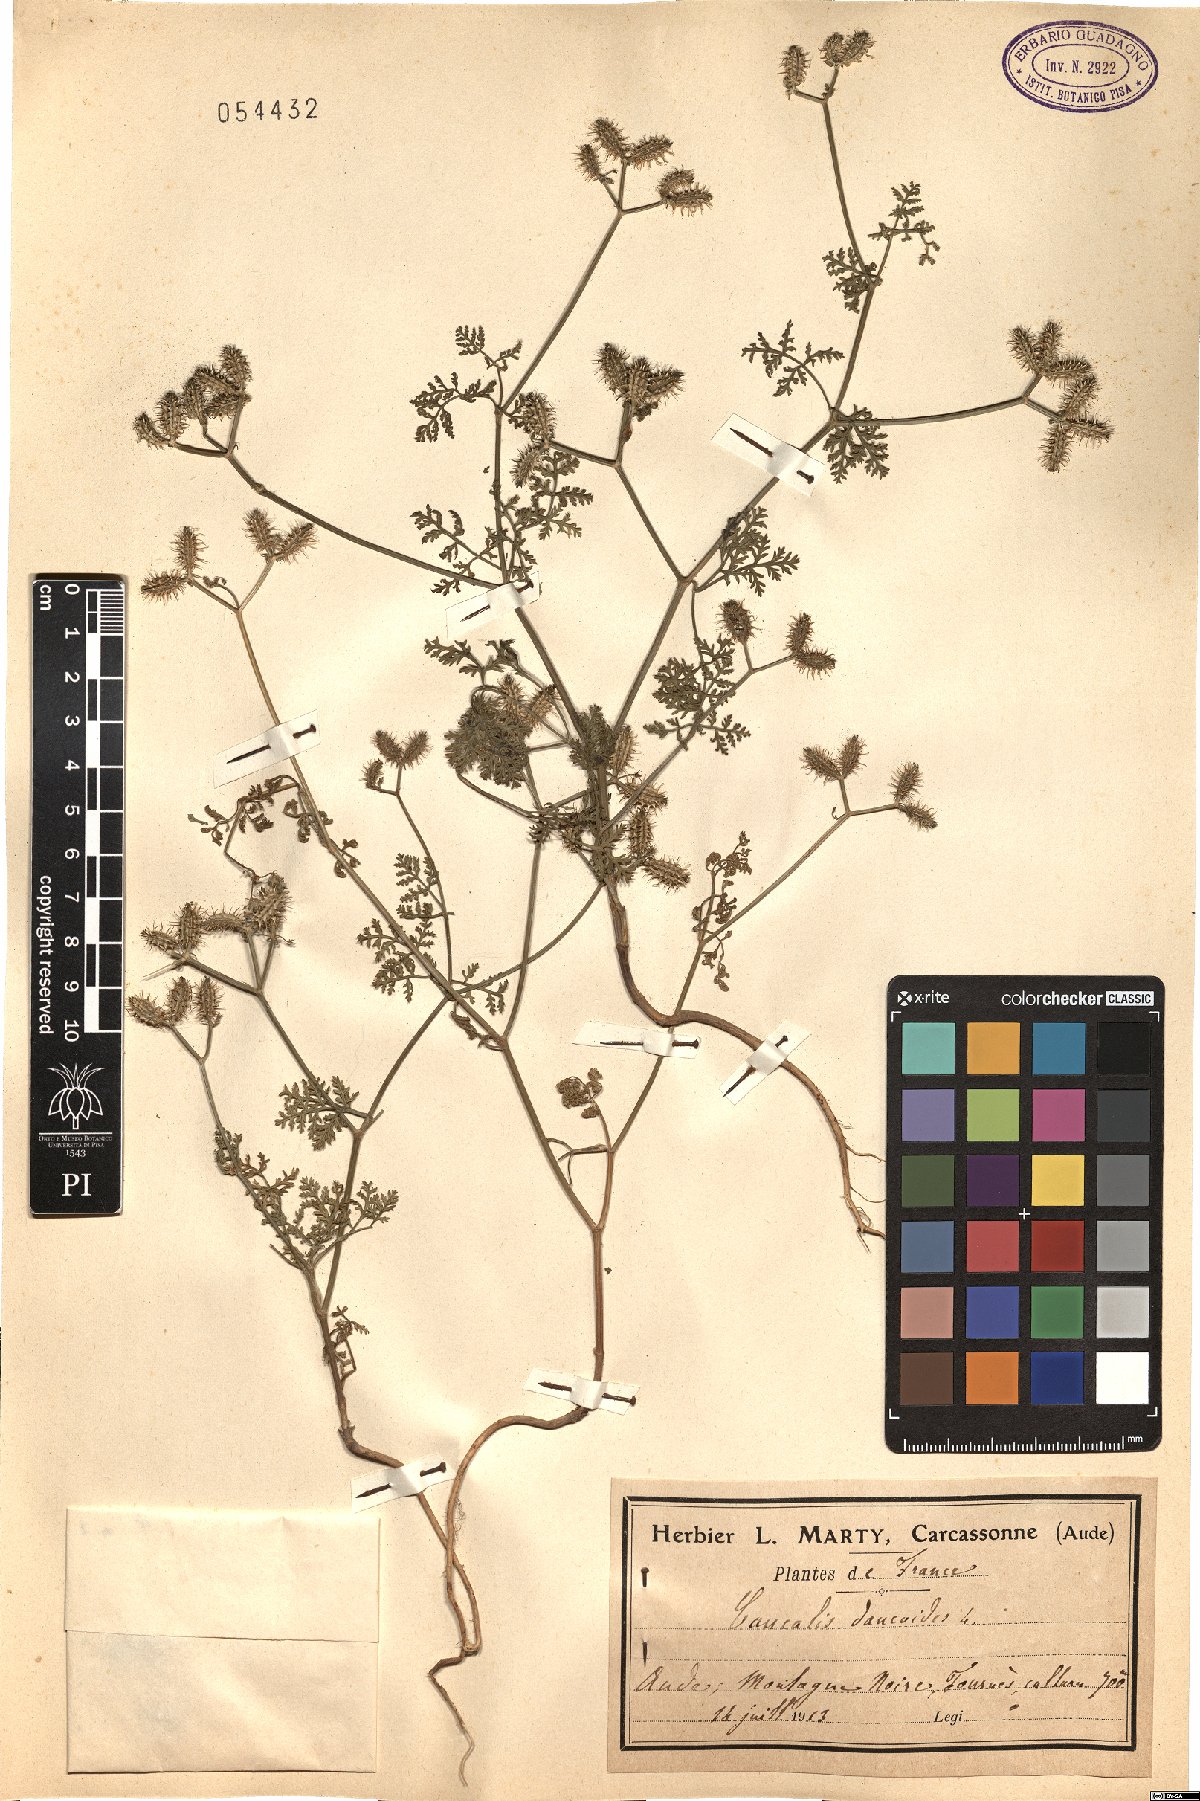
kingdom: Plantae
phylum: Tracheophyta
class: Magnoliopsida
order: Apiales
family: Apiaceae
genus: Orlaya
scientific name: Orlaya daucoides
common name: Flat-fruit orlaya
